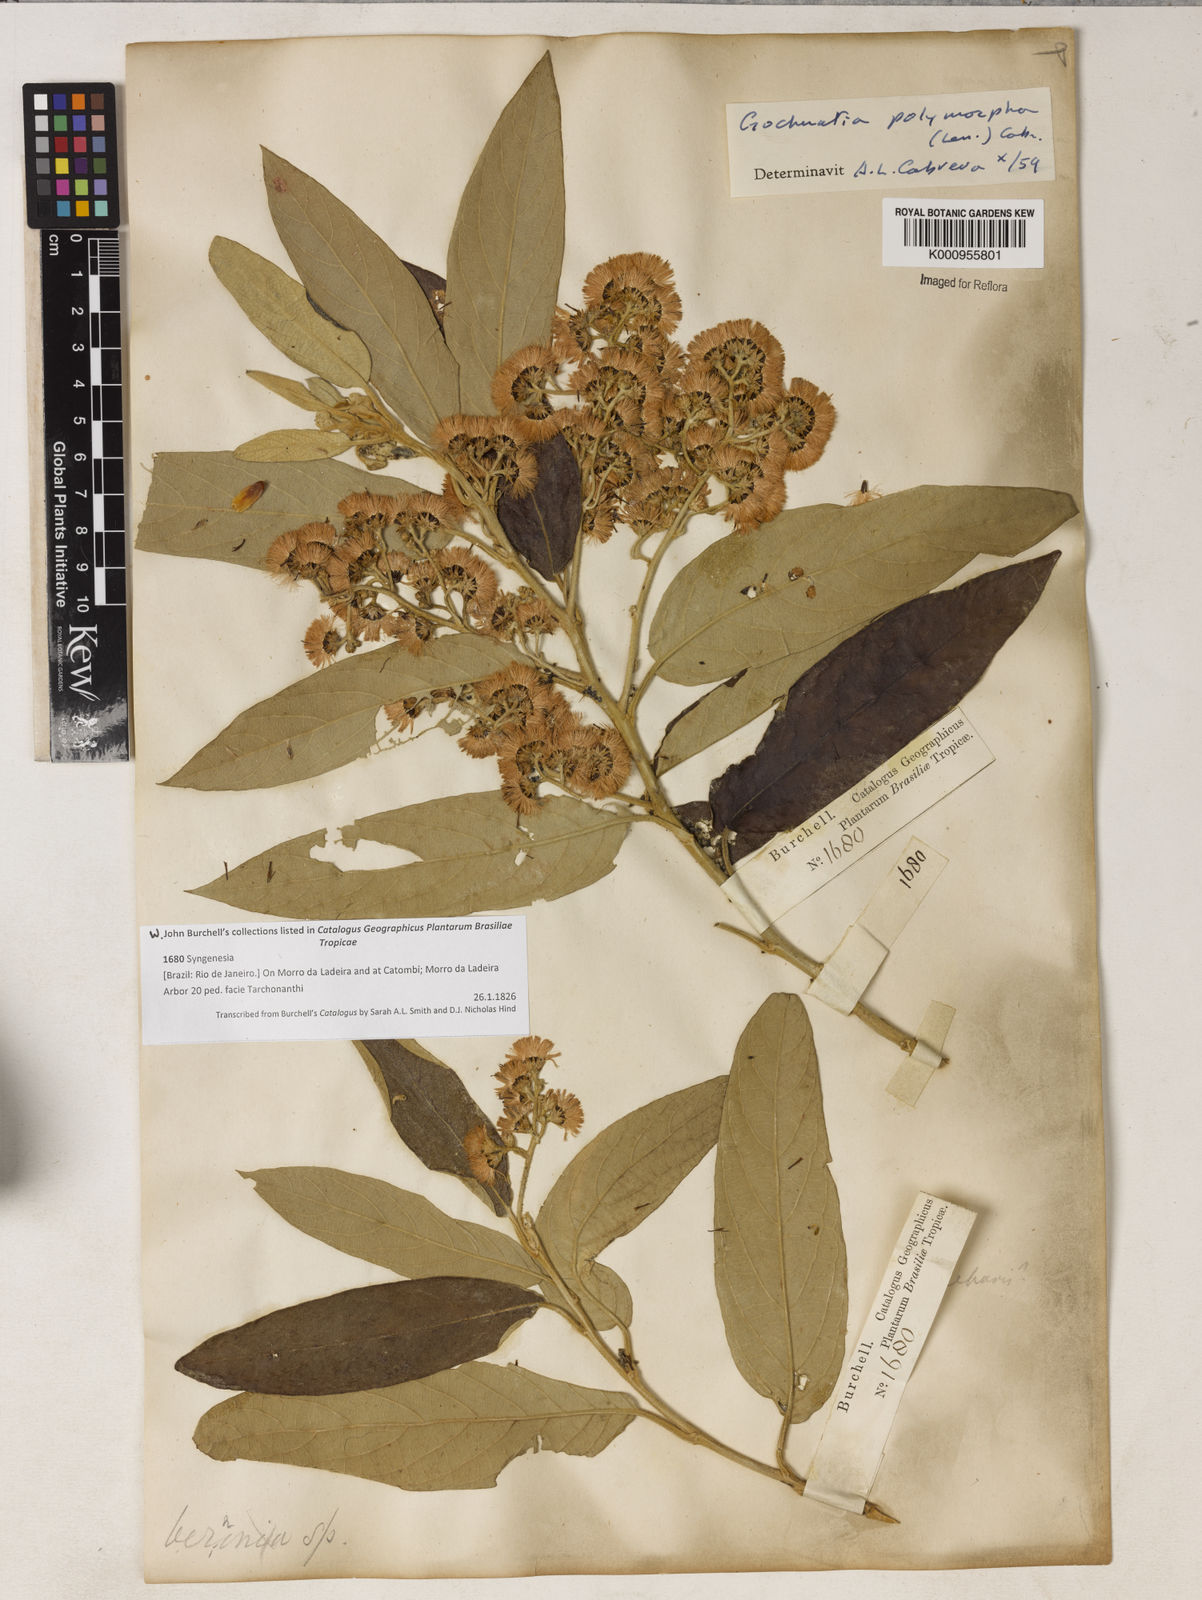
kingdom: Plantae
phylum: Tracheophyta
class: Magnoliopsida
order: Asterales
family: Asteraceae
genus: Moquiniastrum
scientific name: Moquiniastrum polymorphum
